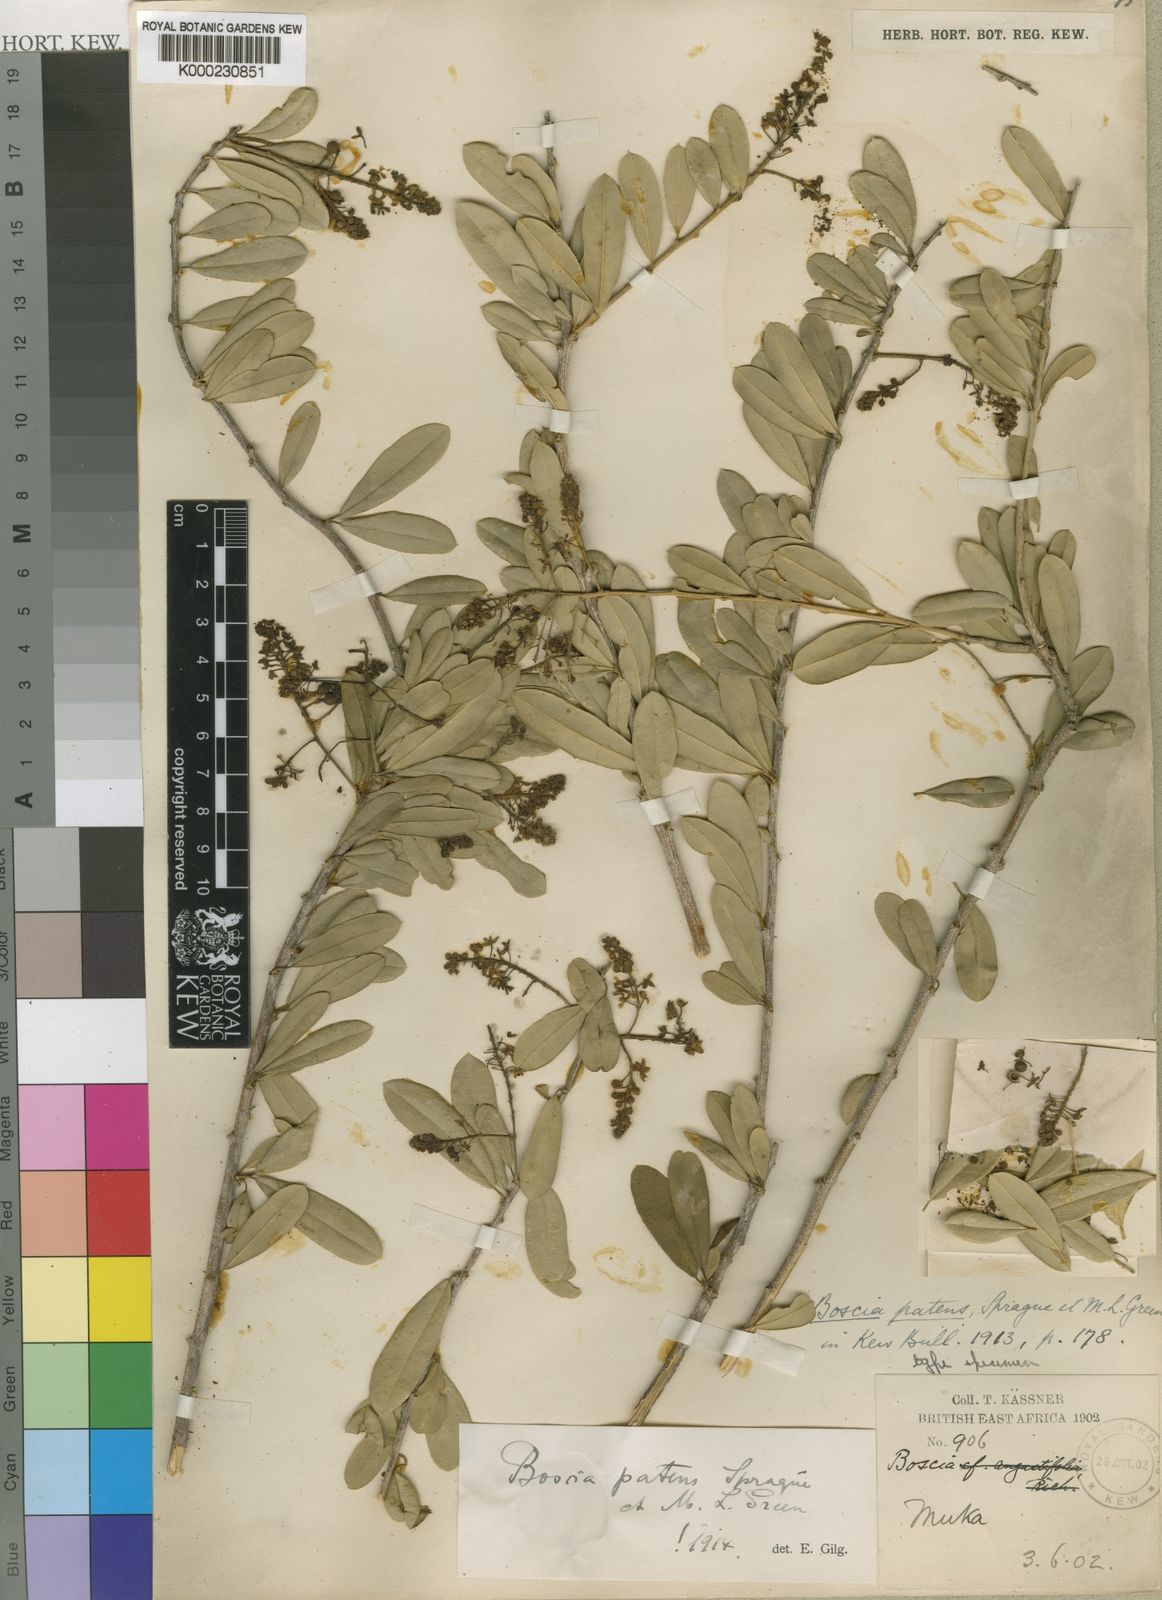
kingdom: Plantae
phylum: Tracheophyta
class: Magnoliopsida
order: Brassicales
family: Capparaceae
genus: Boscia
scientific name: Boscia
